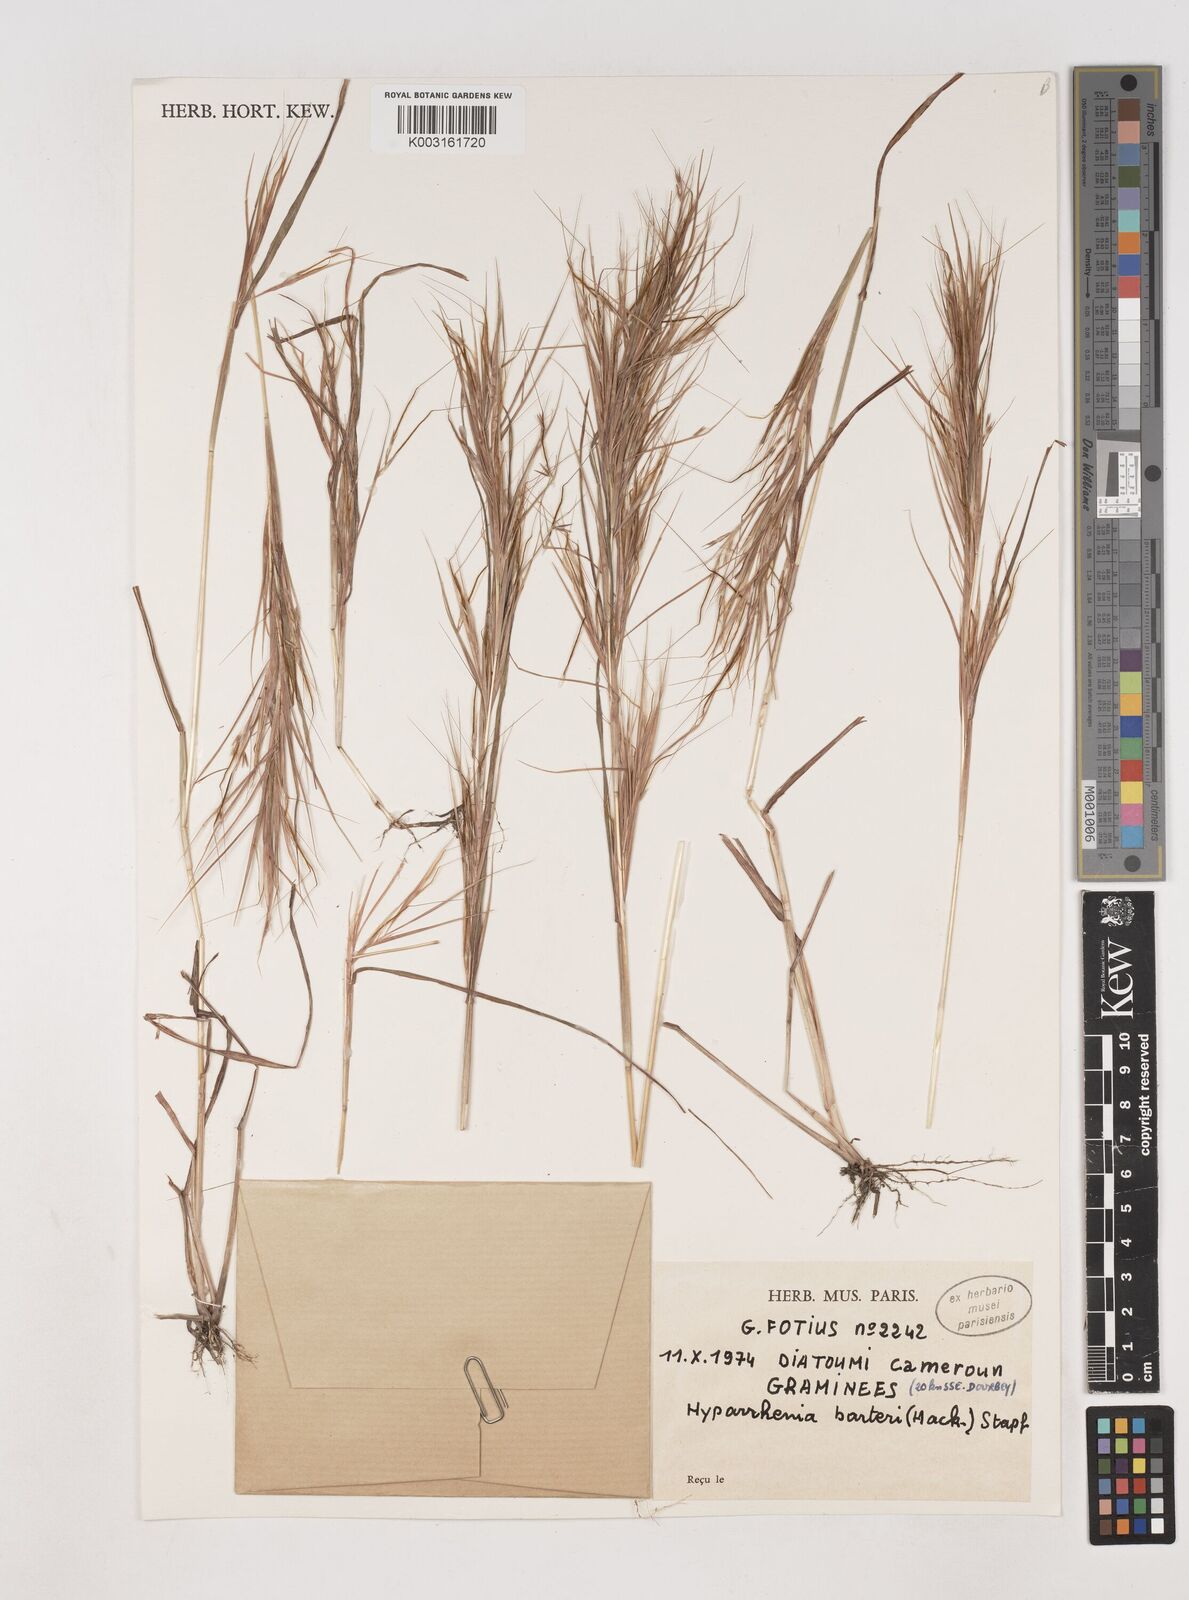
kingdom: Plantae
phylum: Tracheophyta
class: Liliopsida
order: Poales
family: Poaceae
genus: Hyparrhenia
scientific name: Hyparrhenia barteri
